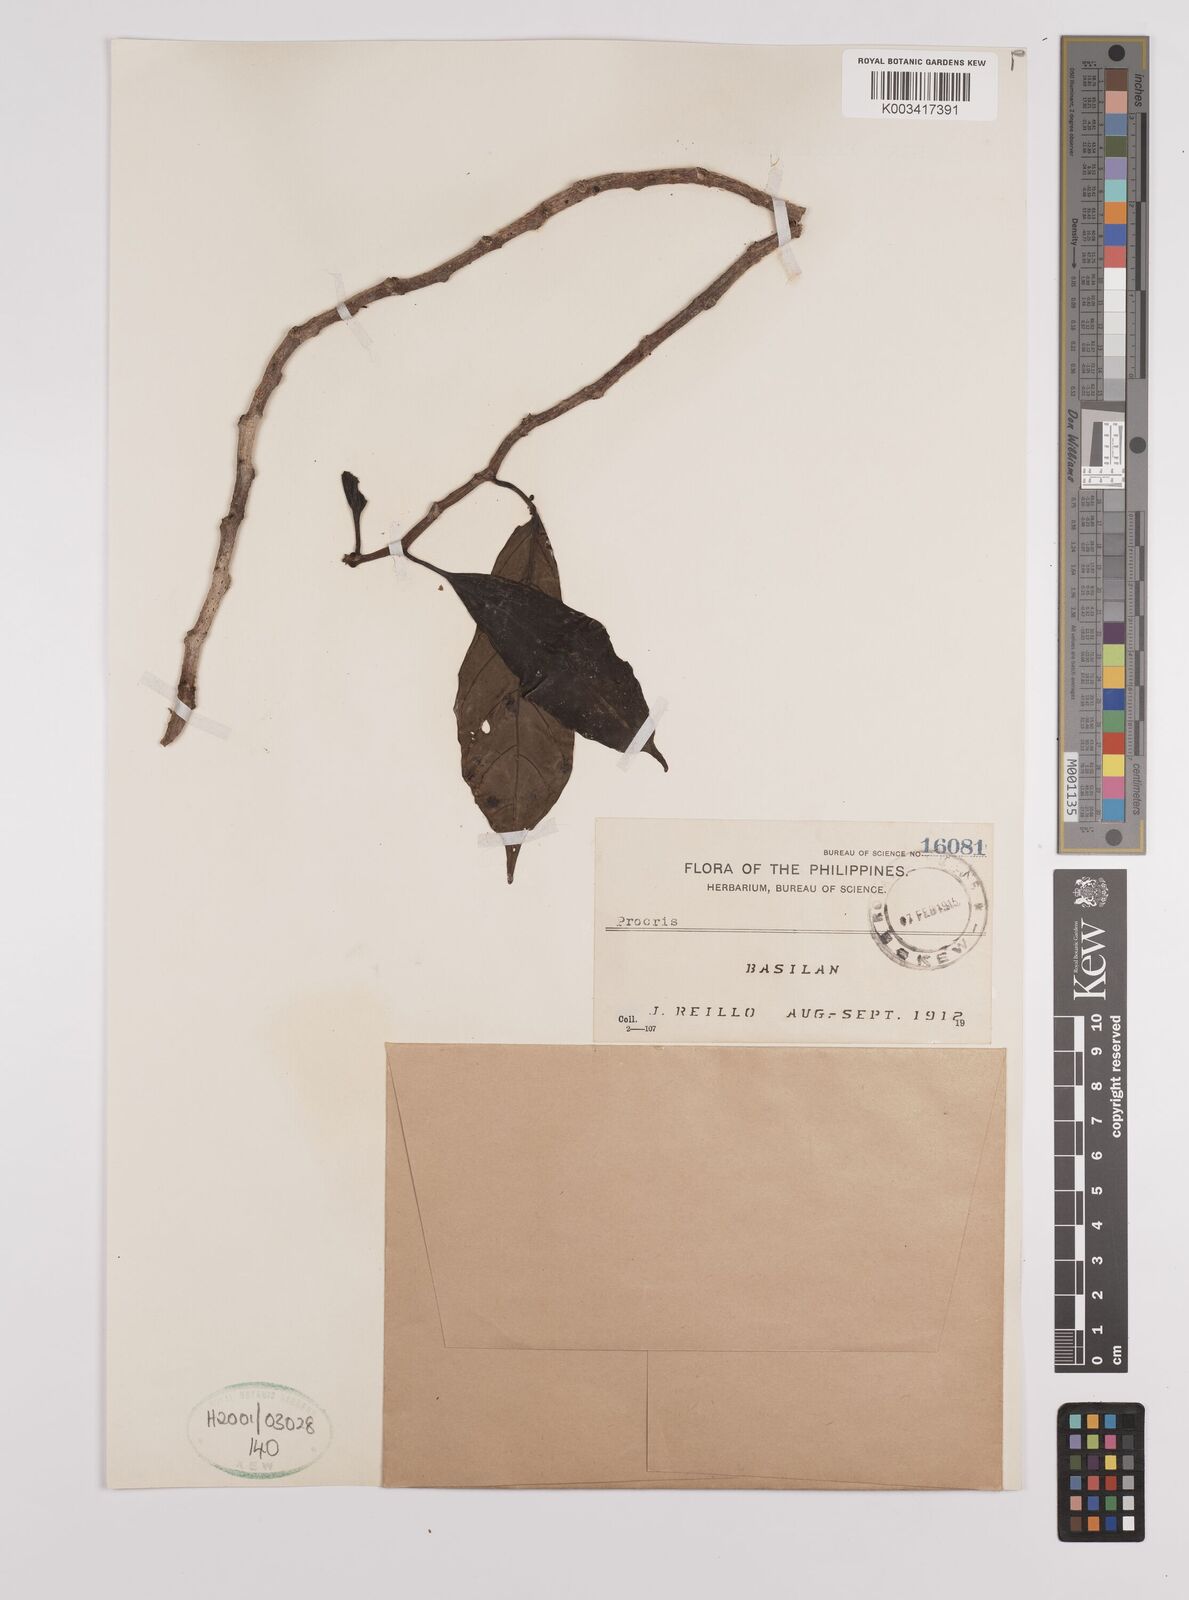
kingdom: Plantae
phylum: Tracheophyta
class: Magnoliopsida
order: Rosales
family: Urticaceae
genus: Procris
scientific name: Procris
